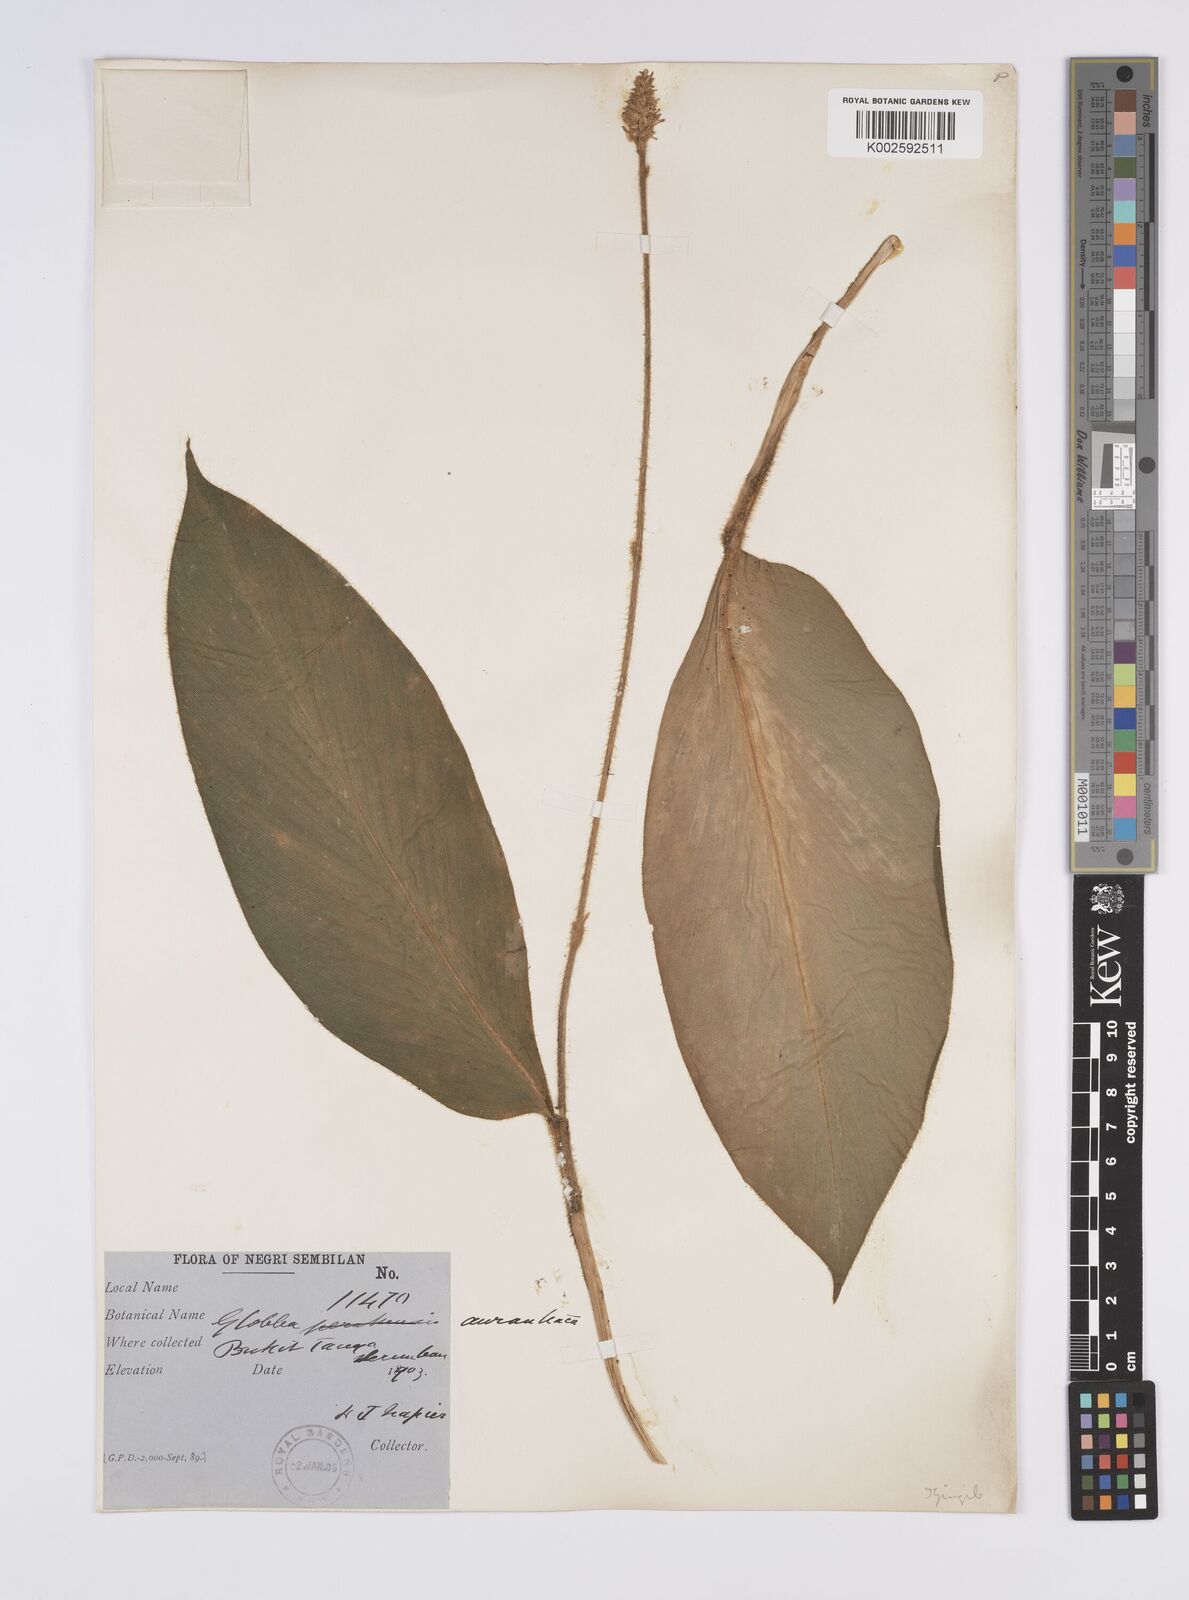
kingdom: Plantae
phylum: Tracheophyta
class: Liliopsida
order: Zingiberales
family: Zingiberaceae
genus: Globba
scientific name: Globba aurantiaca
